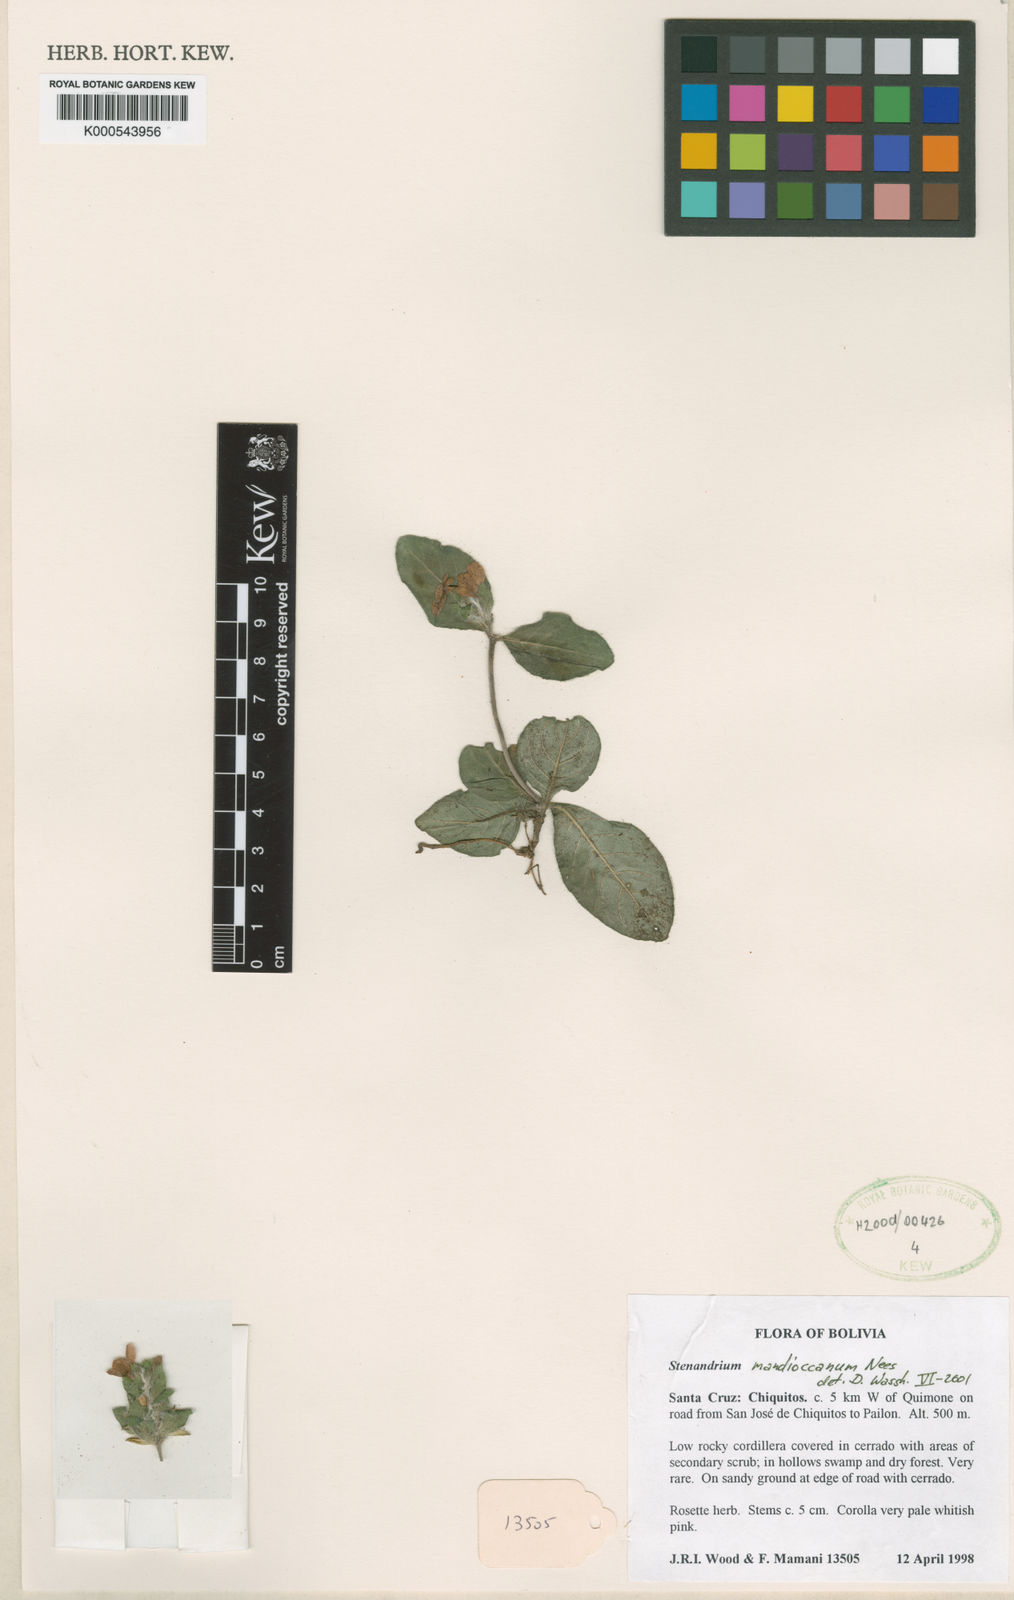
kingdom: Plantae
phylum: Tracheophyta
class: Magnoliopsida
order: Lamiales
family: Acanthaceae
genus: Stenandrium
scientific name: Stenandrium mandioccanum
